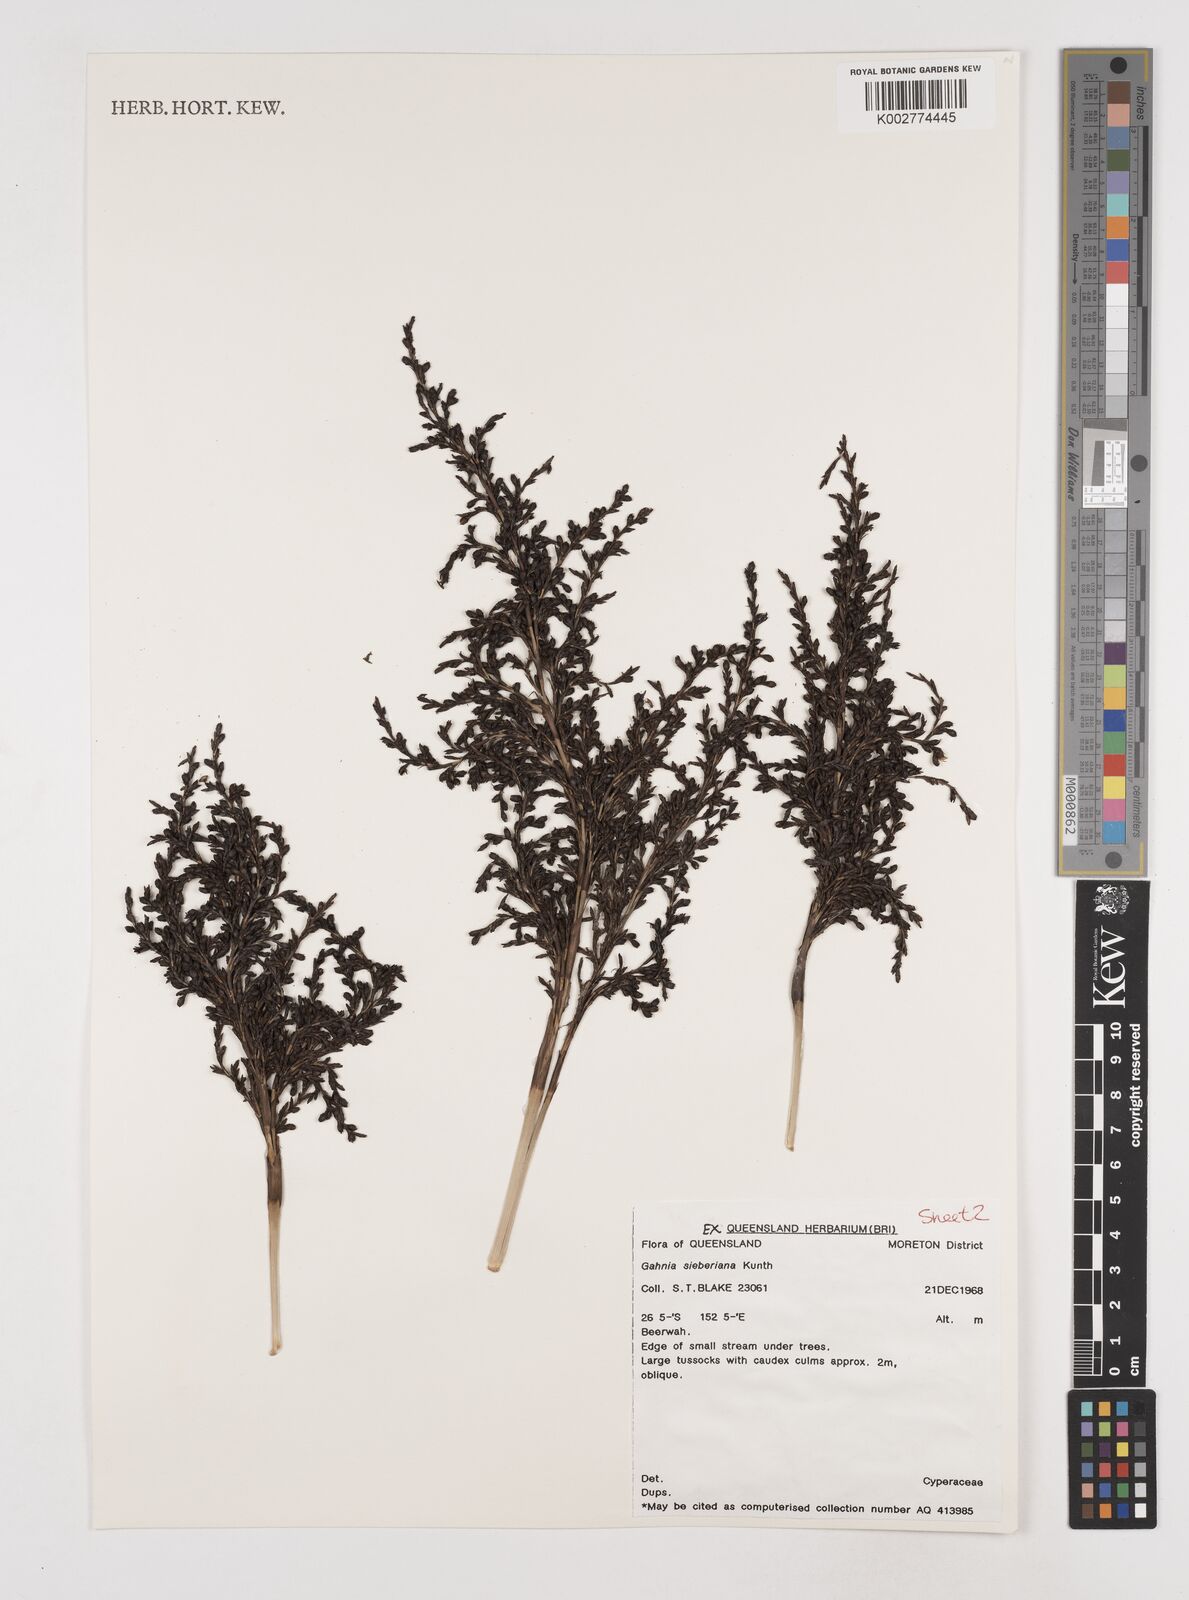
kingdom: Plantae
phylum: Tracheophyta
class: Liliopsida
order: Poales
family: Cyperaceae
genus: Gahnia
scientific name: Gahnia sieberiana
